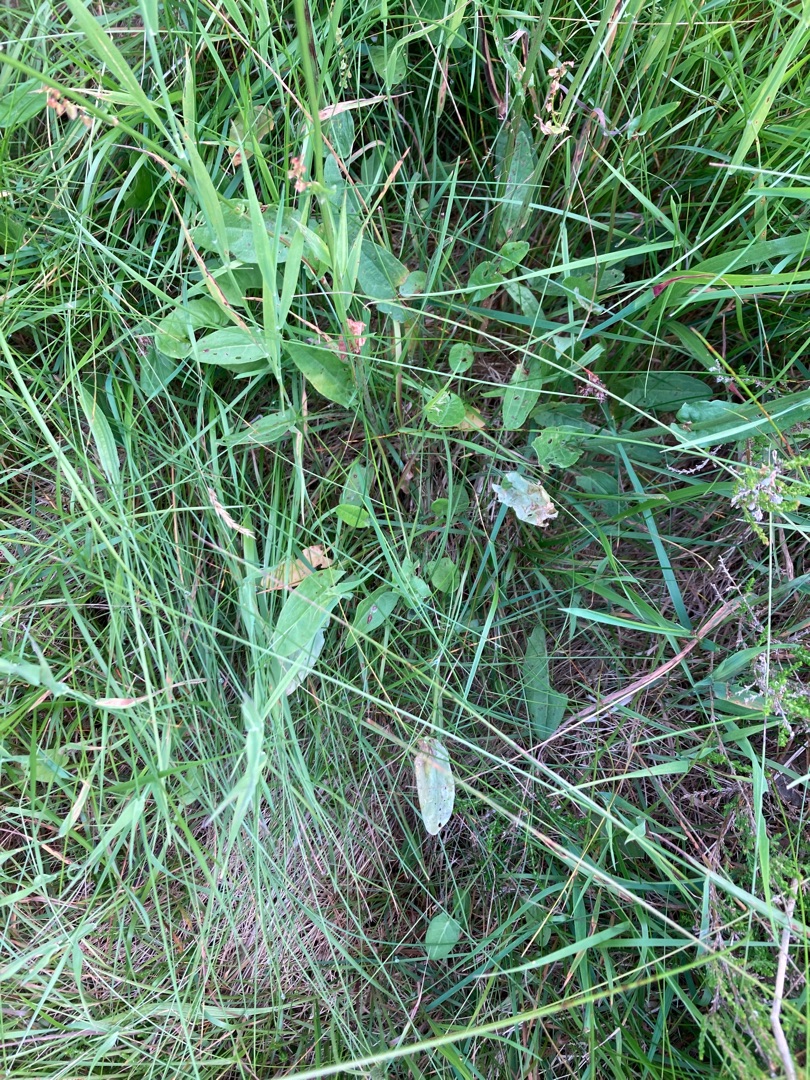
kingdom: Plantae
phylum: Tracheophyta
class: Magnoliopsida
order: Caryophyllales
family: Polygonaceae
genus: Rumex
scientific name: Rumex acetosa
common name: Almindelig syre
